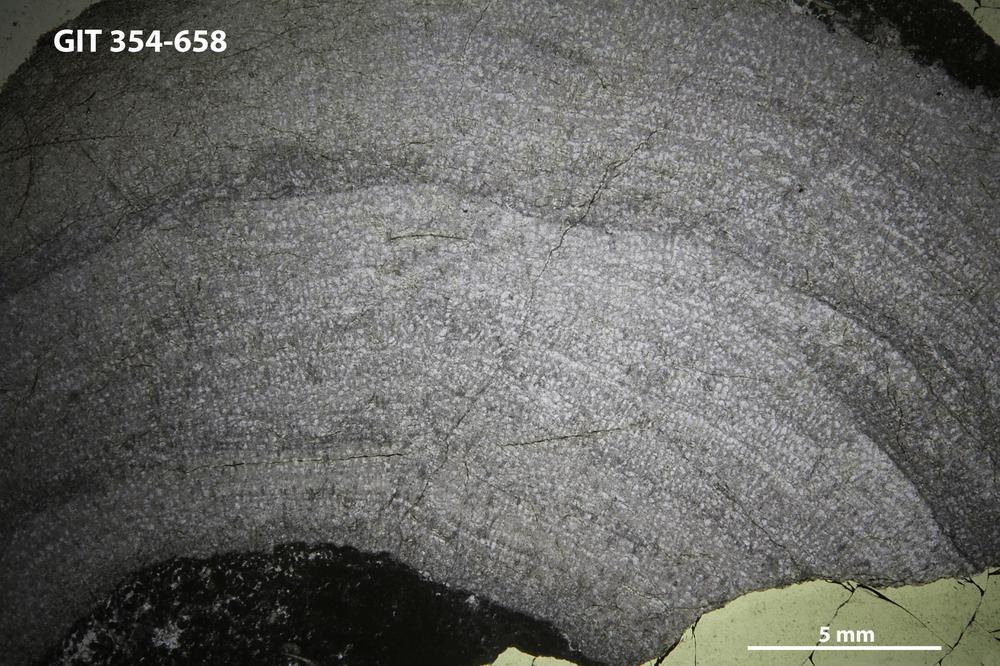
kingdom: Animalia
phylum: Porifera
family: Pseudolabechiidae
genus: Vikingia
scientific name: Vikingia
